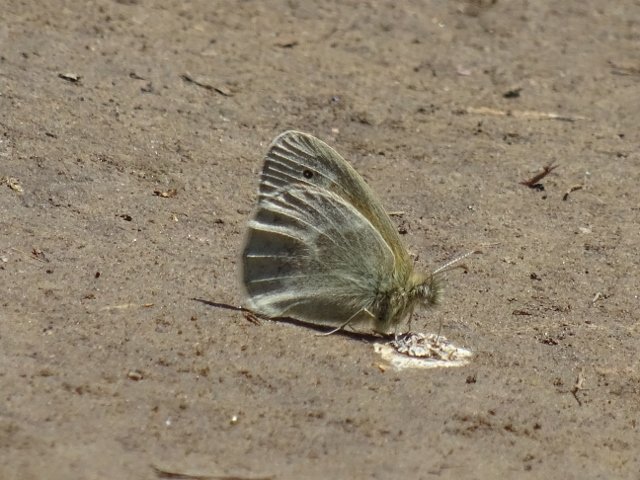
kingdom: Animalia
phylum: Arthropoda
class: Insecta
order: Lepidoptera
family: Nymphalidae
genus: Coenonympha
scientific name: Coenonympha tullia
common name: Large Heath
